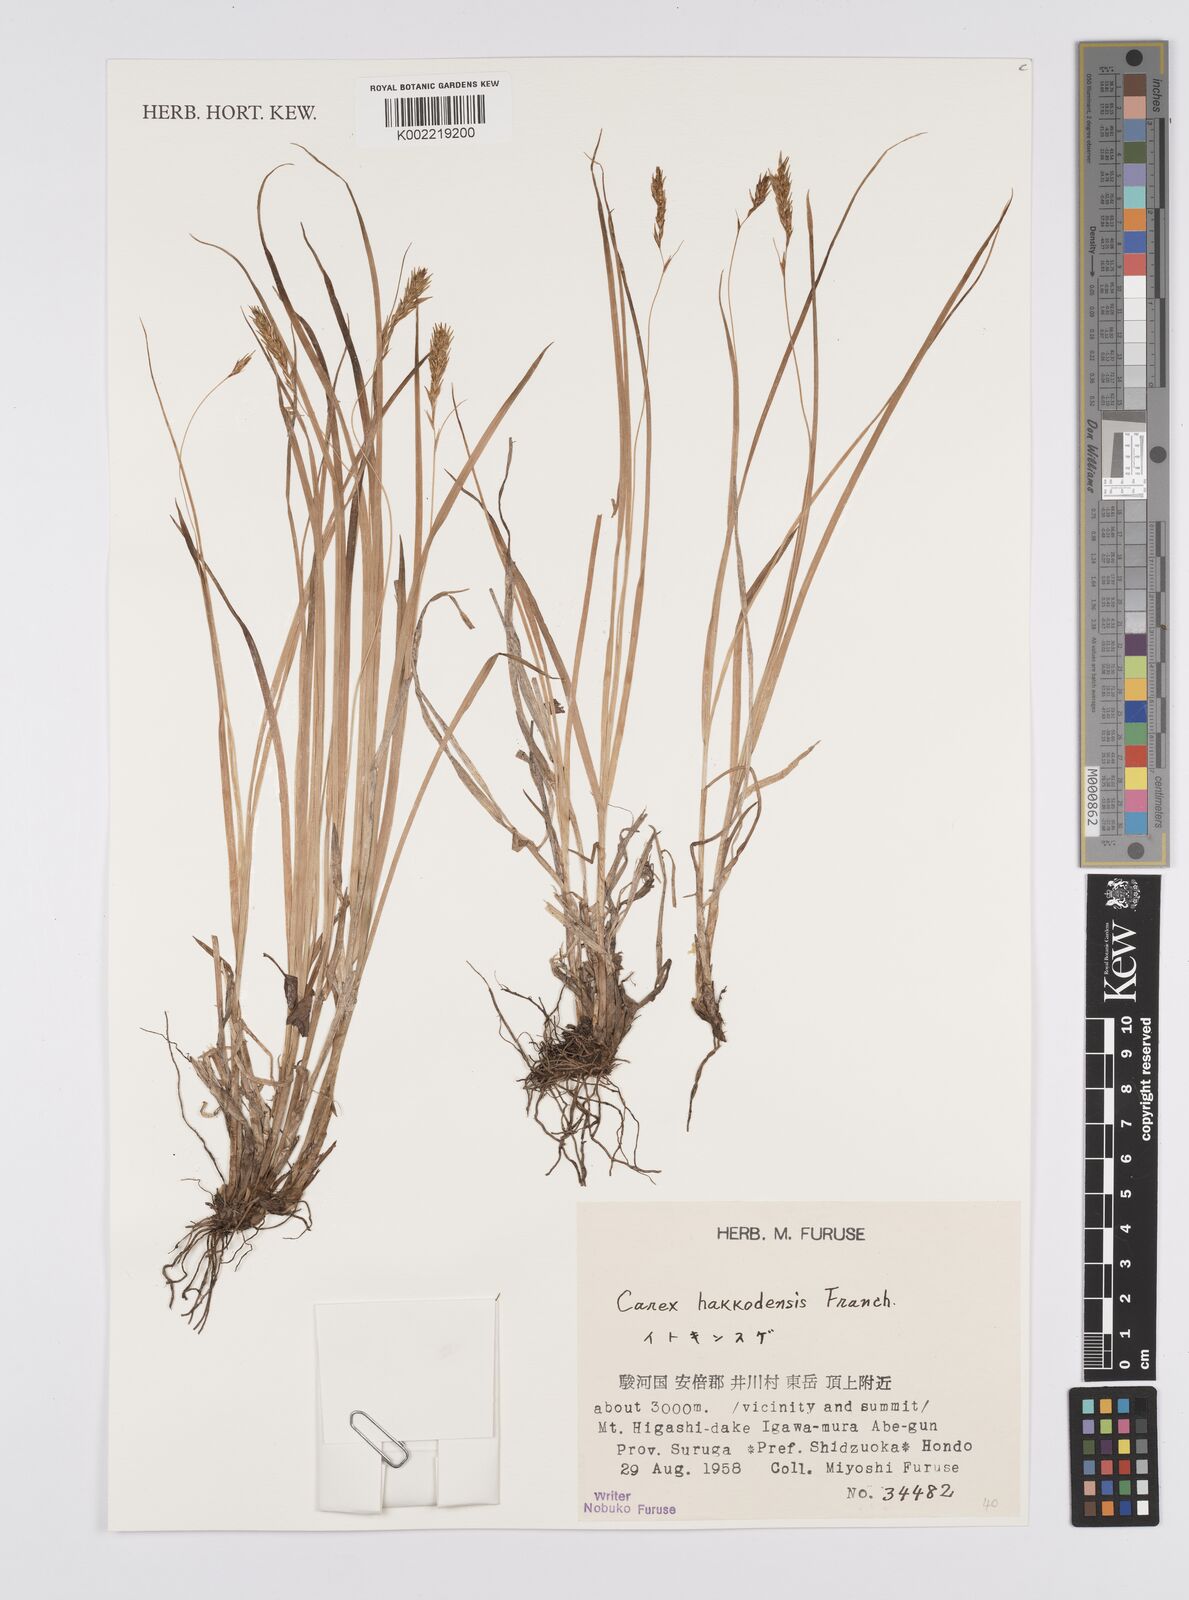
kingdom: Plantae
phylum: Tracheophyta
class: Liliopsida
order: Poales
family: Cyperaceae
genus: Carex
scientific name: Carex hakkodensis
